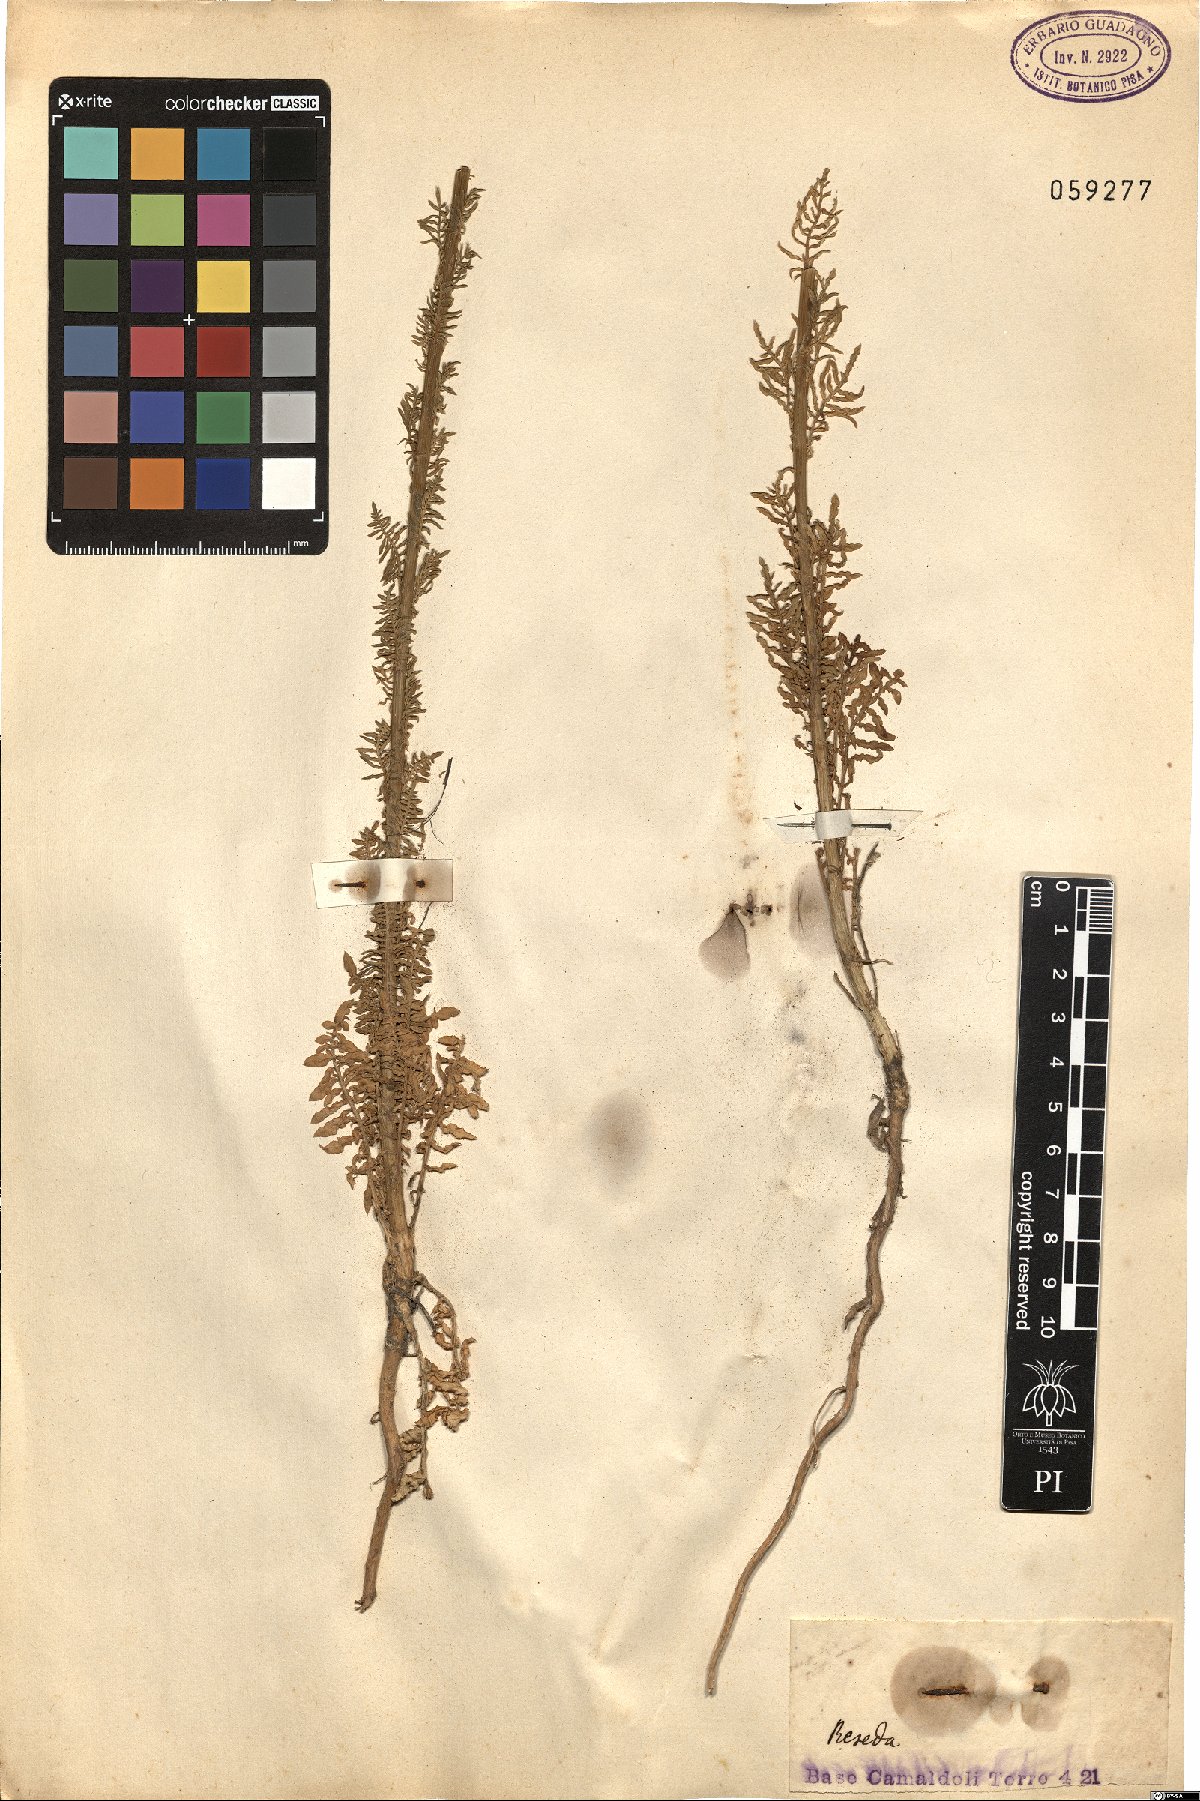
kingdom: Plantae
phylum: Tracheophyta
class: Magnoliopsida
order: Brassicales
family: Resedaceae
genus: Reseda
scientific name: Reseda
